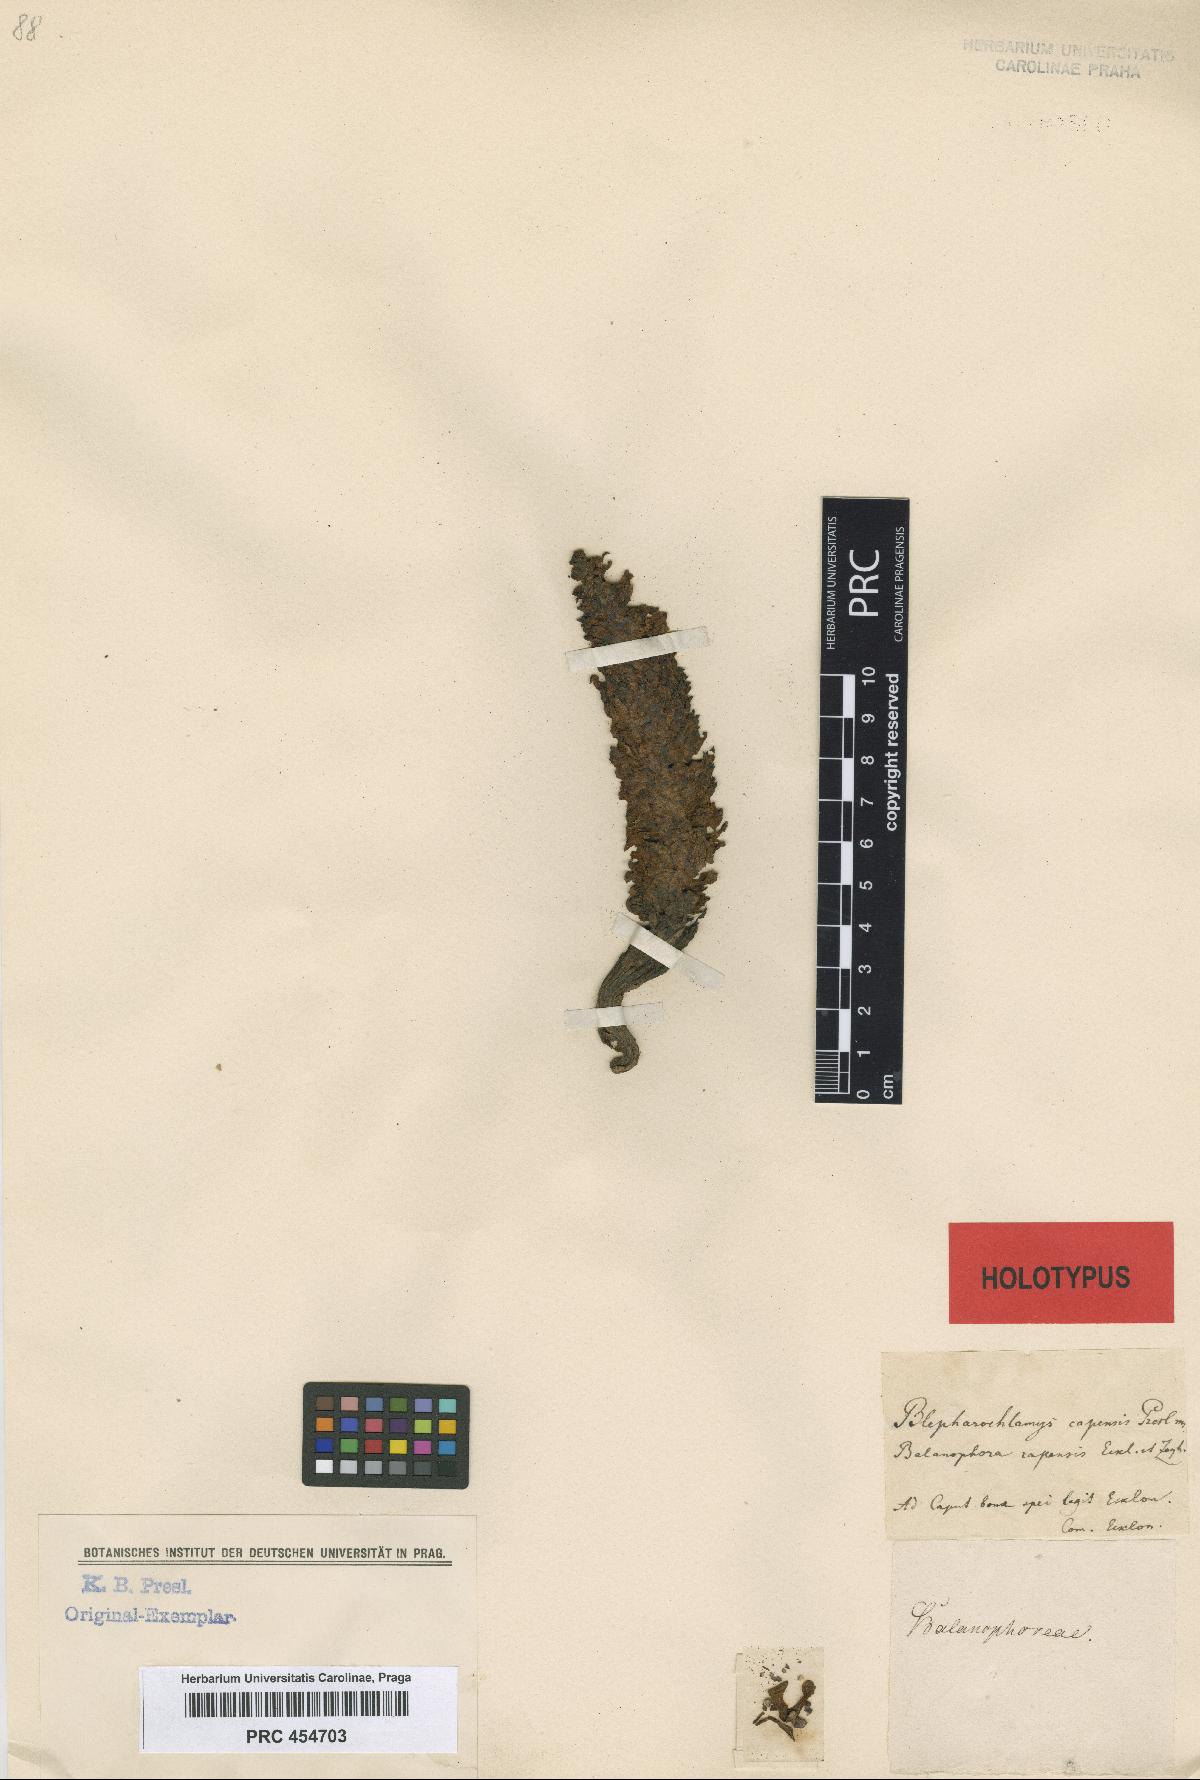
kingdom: Plantae
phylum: Tracheophyta
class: Magnoliopsida
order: Santalales
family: Mystropetalaceae
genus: Mystropetalon
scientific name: Mystropetalon thomii
